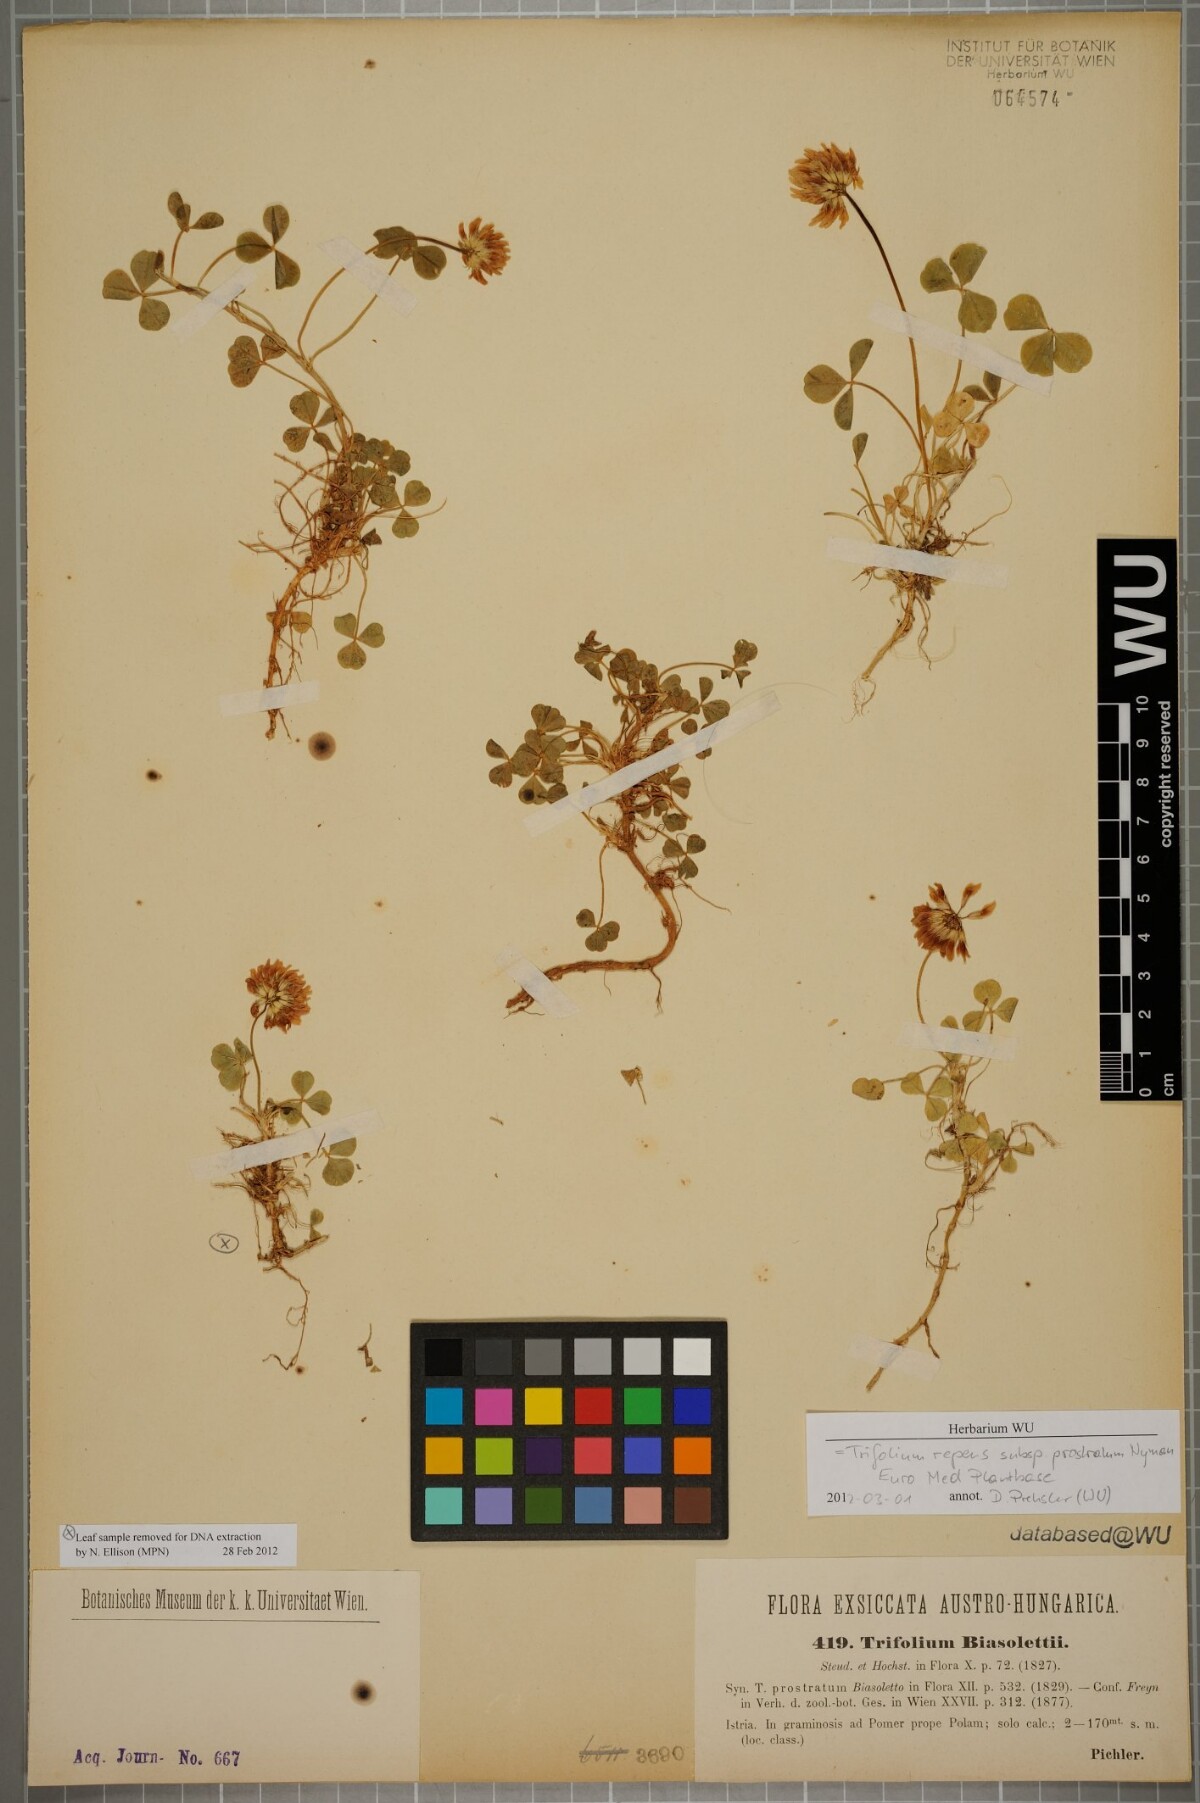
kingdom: Plantae
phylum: Tracheophyta
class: Magnoliopsida
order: Fabales
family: Fabaceae
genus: Trifolium
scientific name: Trifolium repens
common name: White clover
